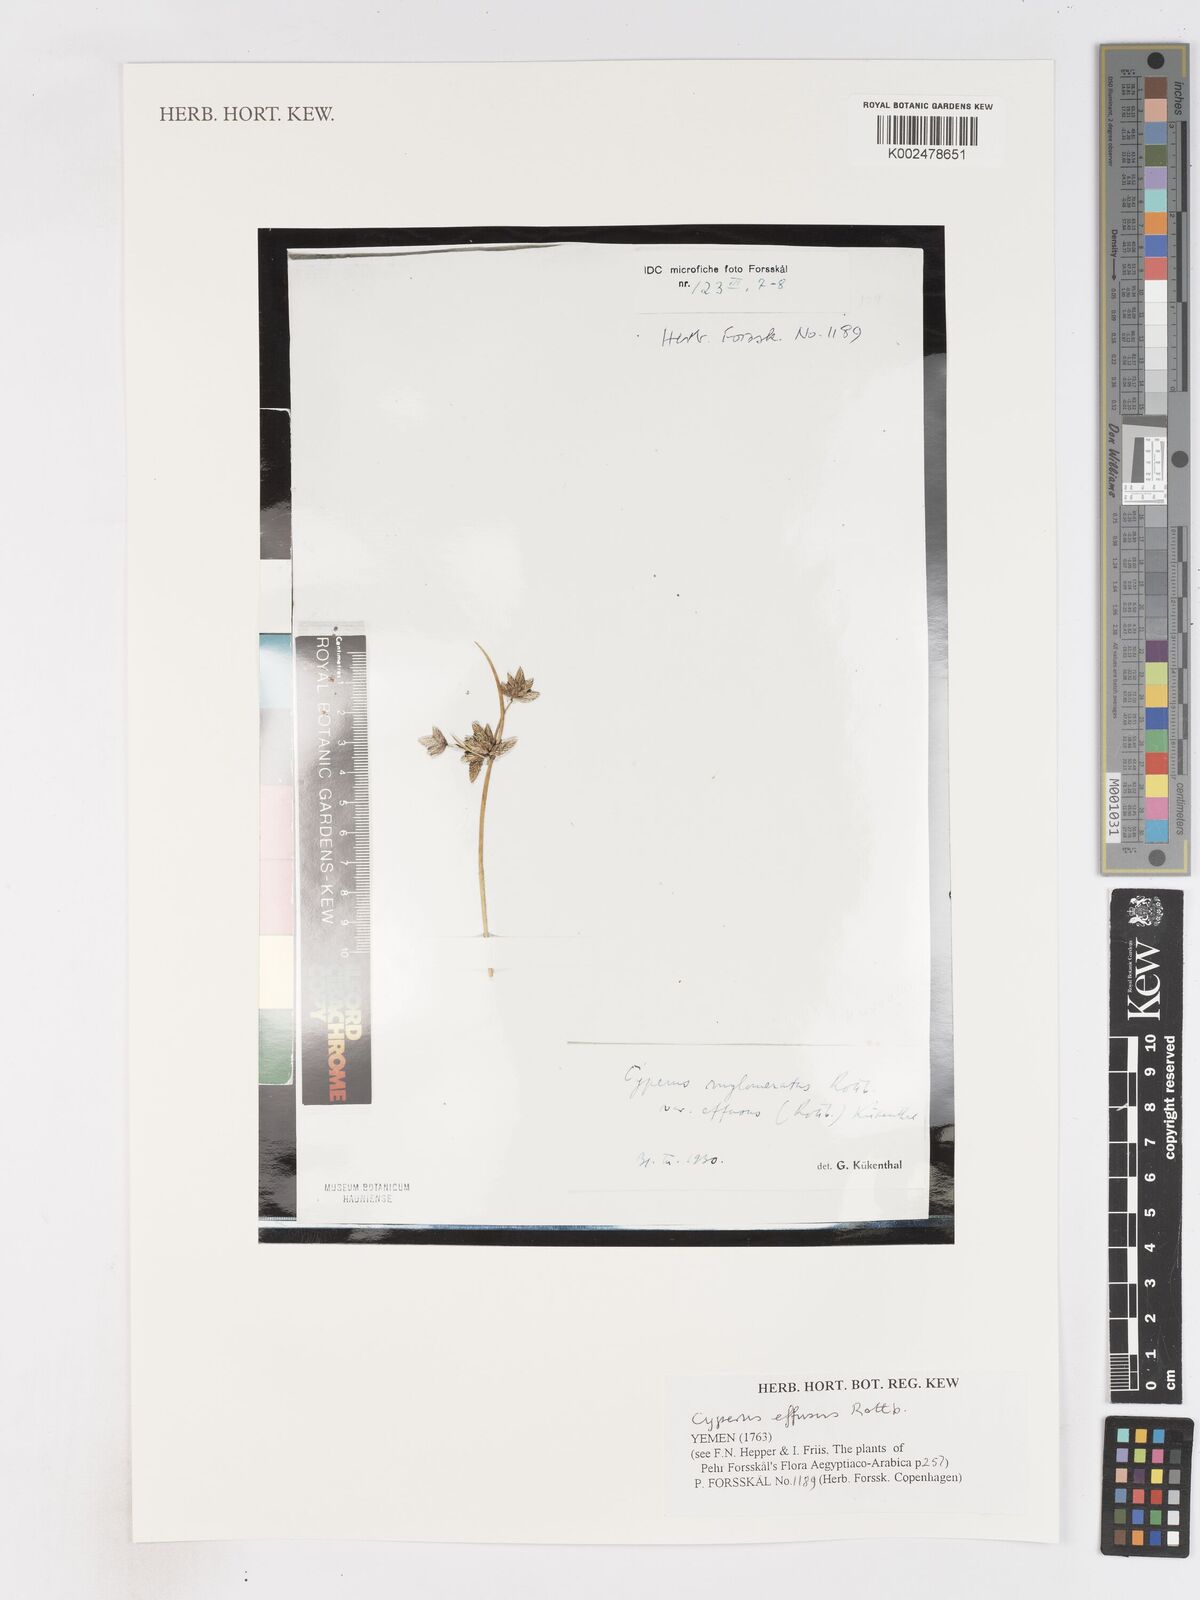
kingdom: Plantae
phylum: Tracheophyta
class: Liliopsida
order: Poales
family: Cyperaceae
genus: Cyperus
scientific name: Cyperus conglomeratus
